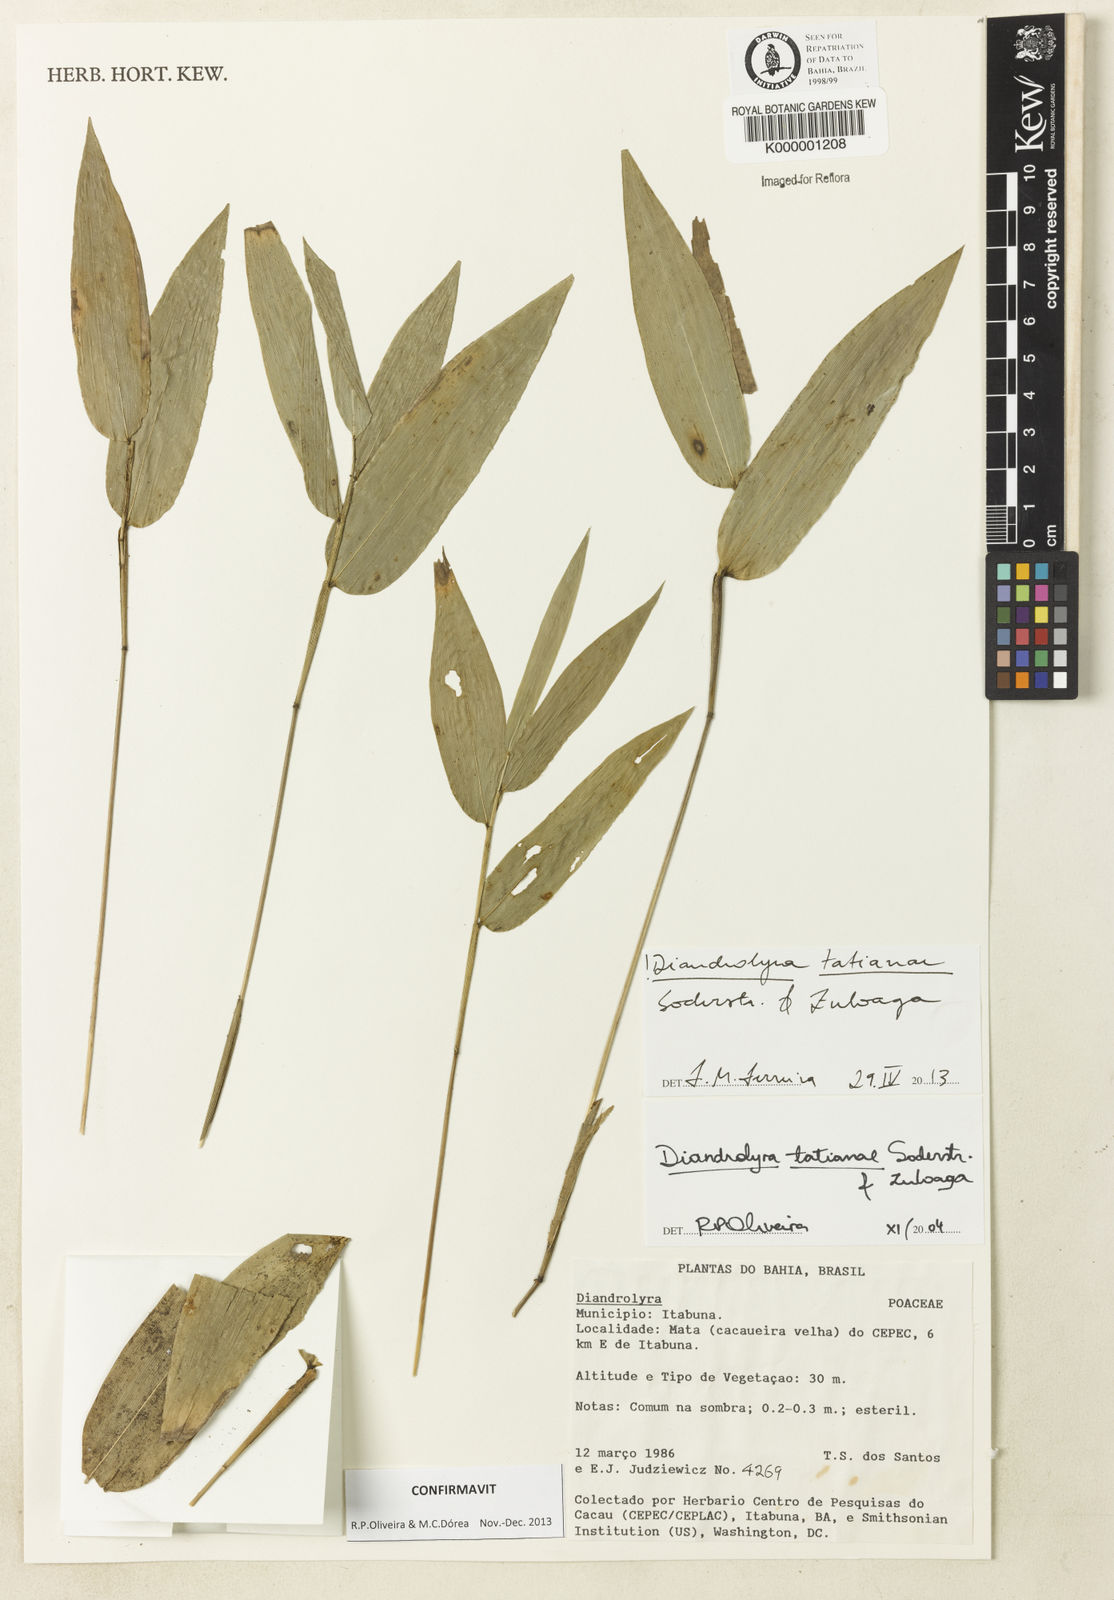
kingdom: Plantae
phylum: Tracheophyta
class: Liliopsida
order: Poales
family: Poaceae
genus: Diandrolyra
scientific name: Diandrolyra
